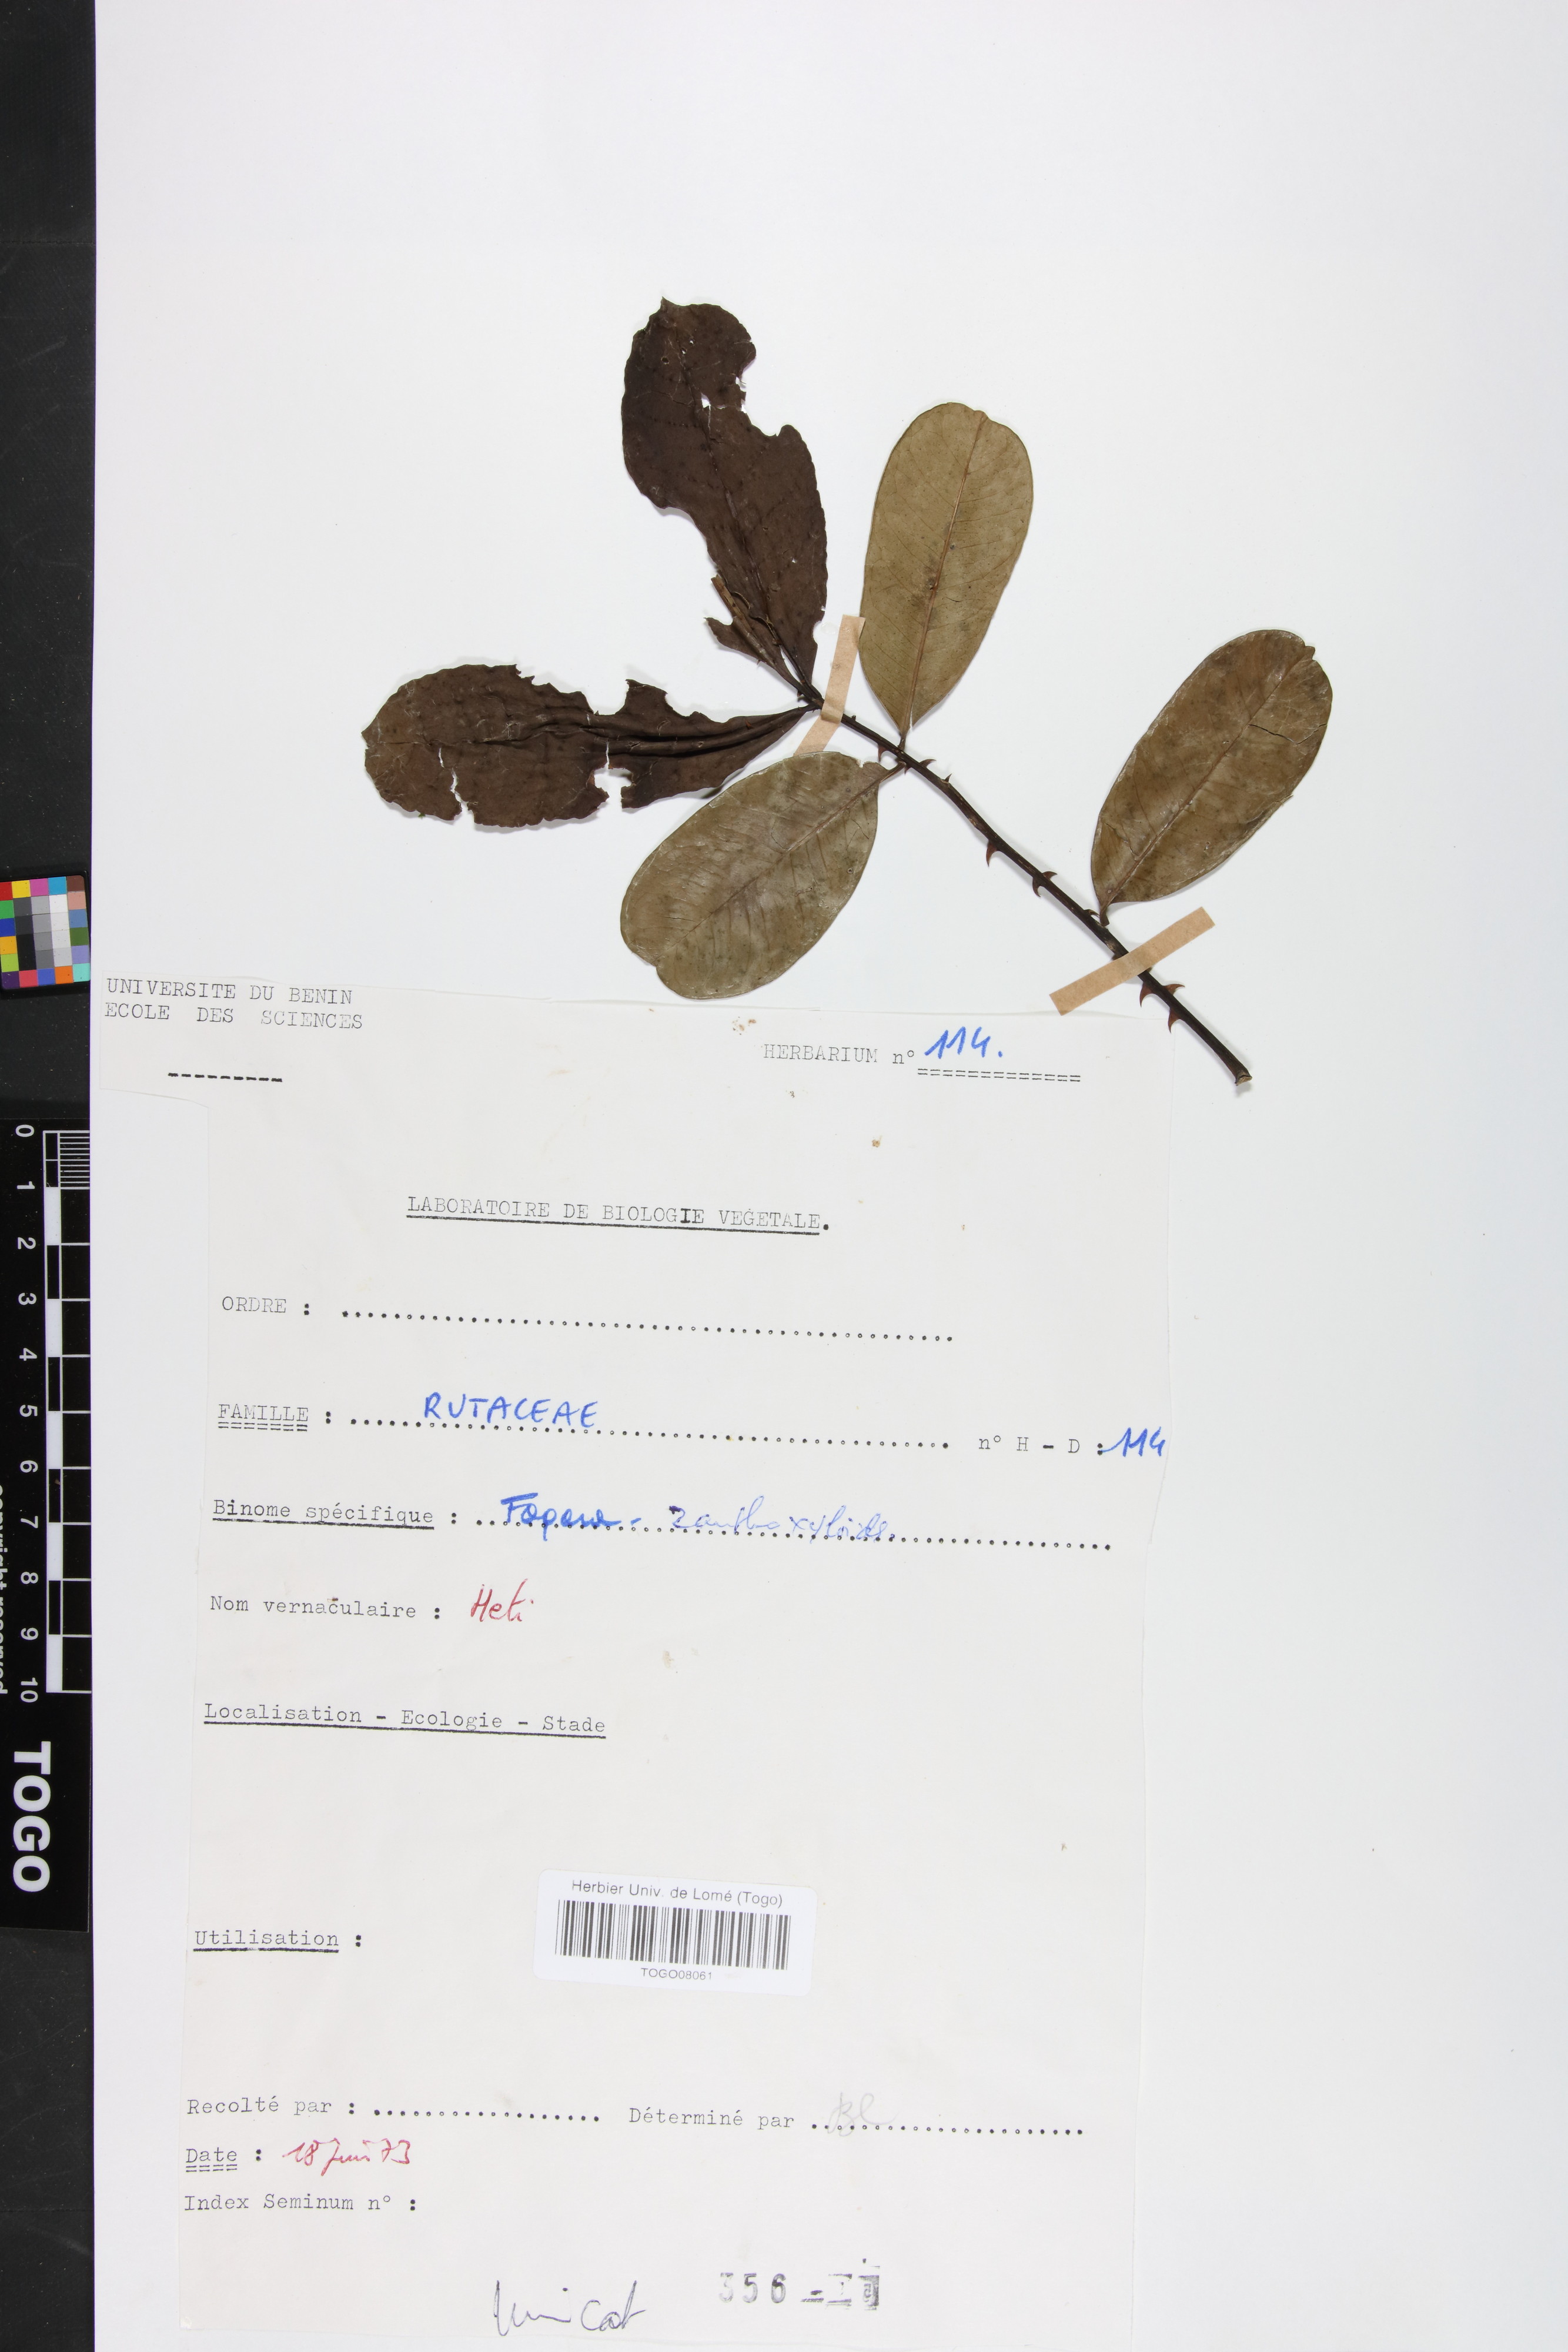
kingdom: Plantae
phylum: Tracheophyta
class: Magnoliopsida
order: Sapindales
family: Rutaceae
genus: Zanthoxylum
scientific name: Zanthoxylum zanthoxyloides
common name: Senegal prickly-ash
